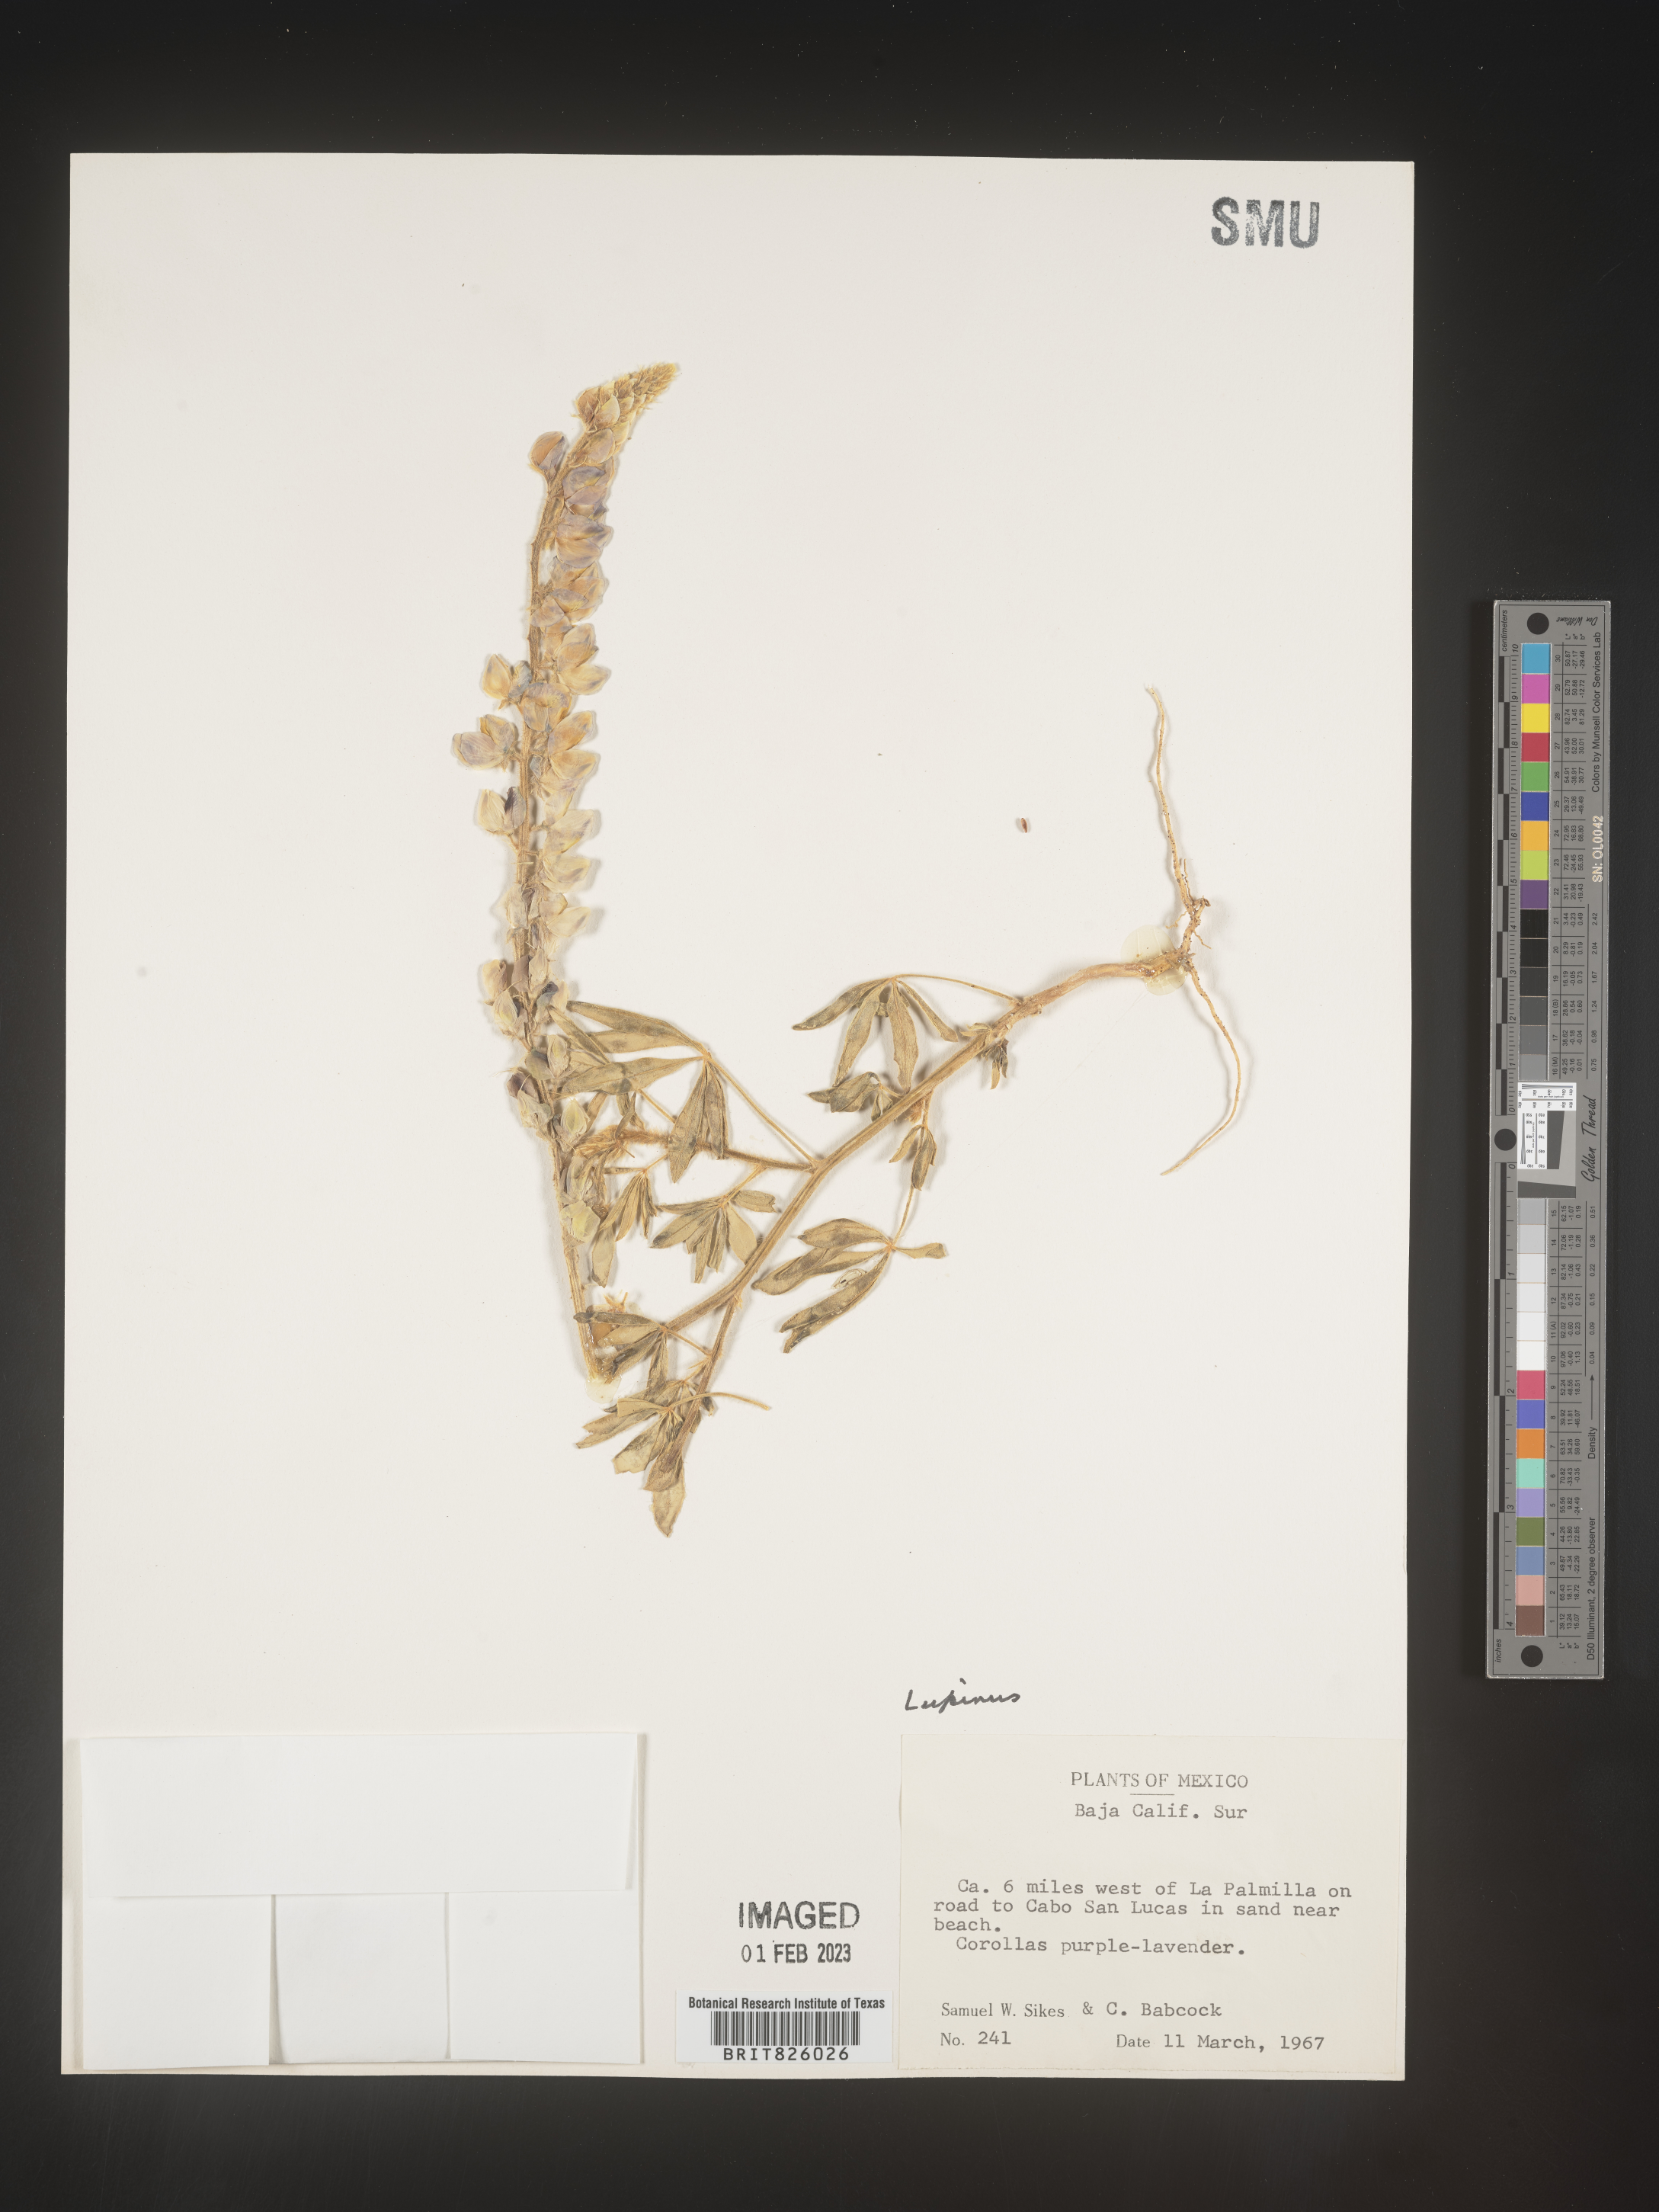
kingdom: Plantae
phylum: Tracheophyta
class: Magnoliopsida
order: Fabales
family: Fabaceae
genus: Lupinus
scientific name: Lupinus
